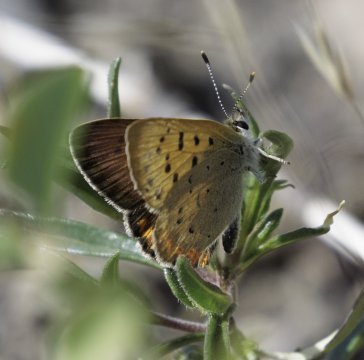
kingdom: Animalia
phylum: Arthropoda
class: Insecta
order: Lepidoptera
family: Sesiidae
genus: Sesia
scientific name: Sesia Lycaena helloides
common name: Purplish Copper
